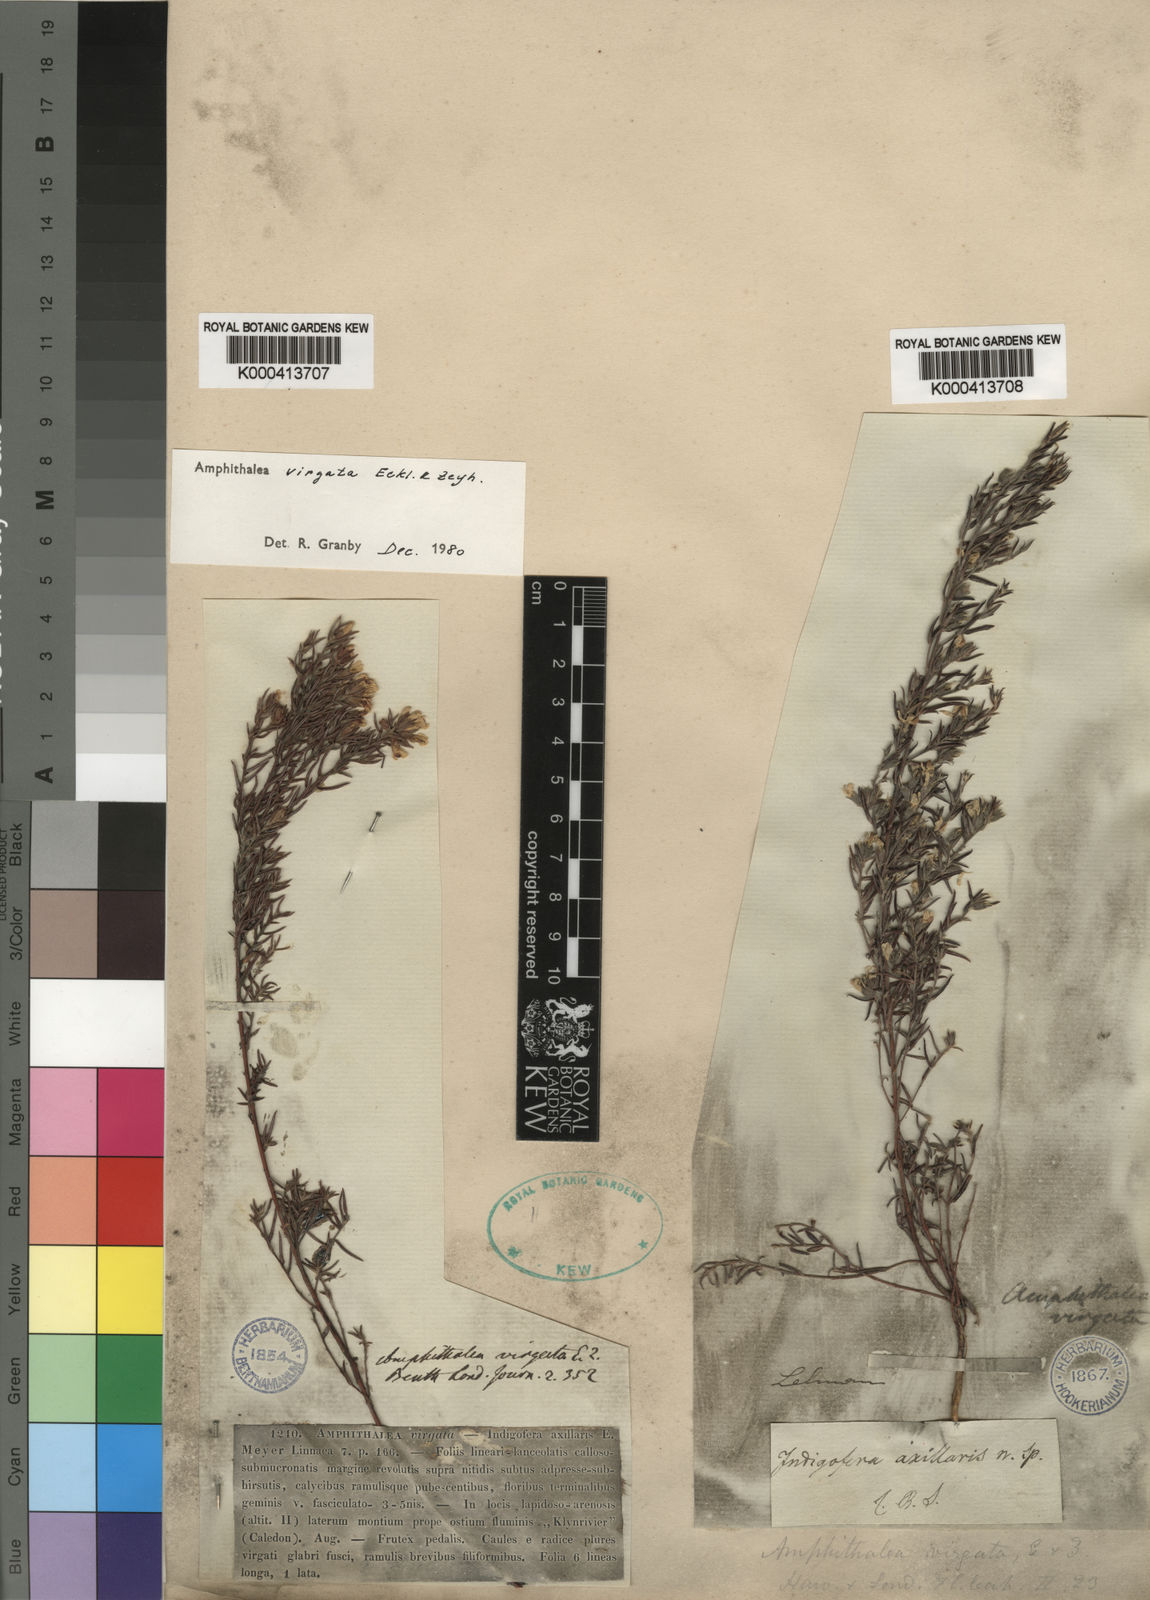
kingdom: Plantae
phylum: Tracheophyta
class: Magnoliopsida
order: Fabales
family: Fabaceae
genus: Amphithalea
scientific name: Amphithalea virgata
